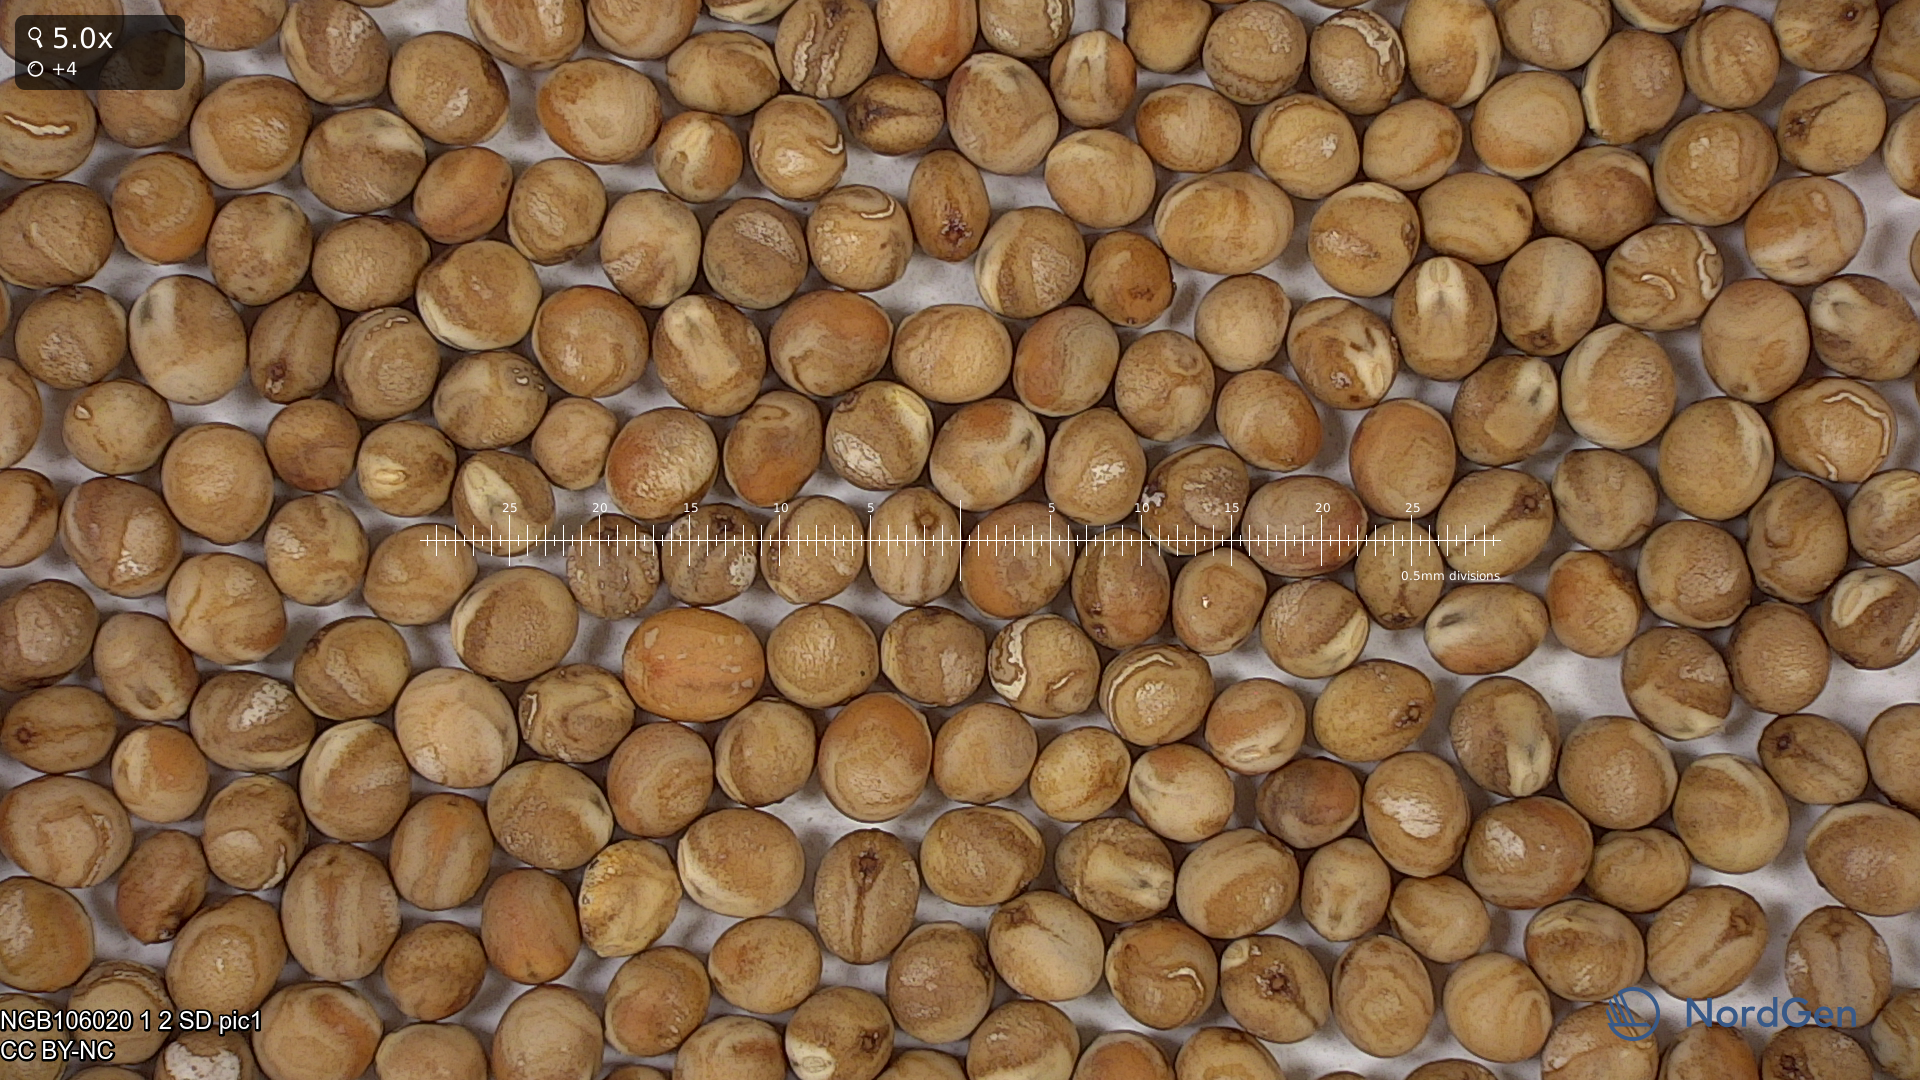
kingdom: Plantae
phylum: Tracheophyta
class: Magnoliopsida
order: Fabales
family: Fabaceae
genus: Lathyrus
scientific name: Lathyrus oleraceus
